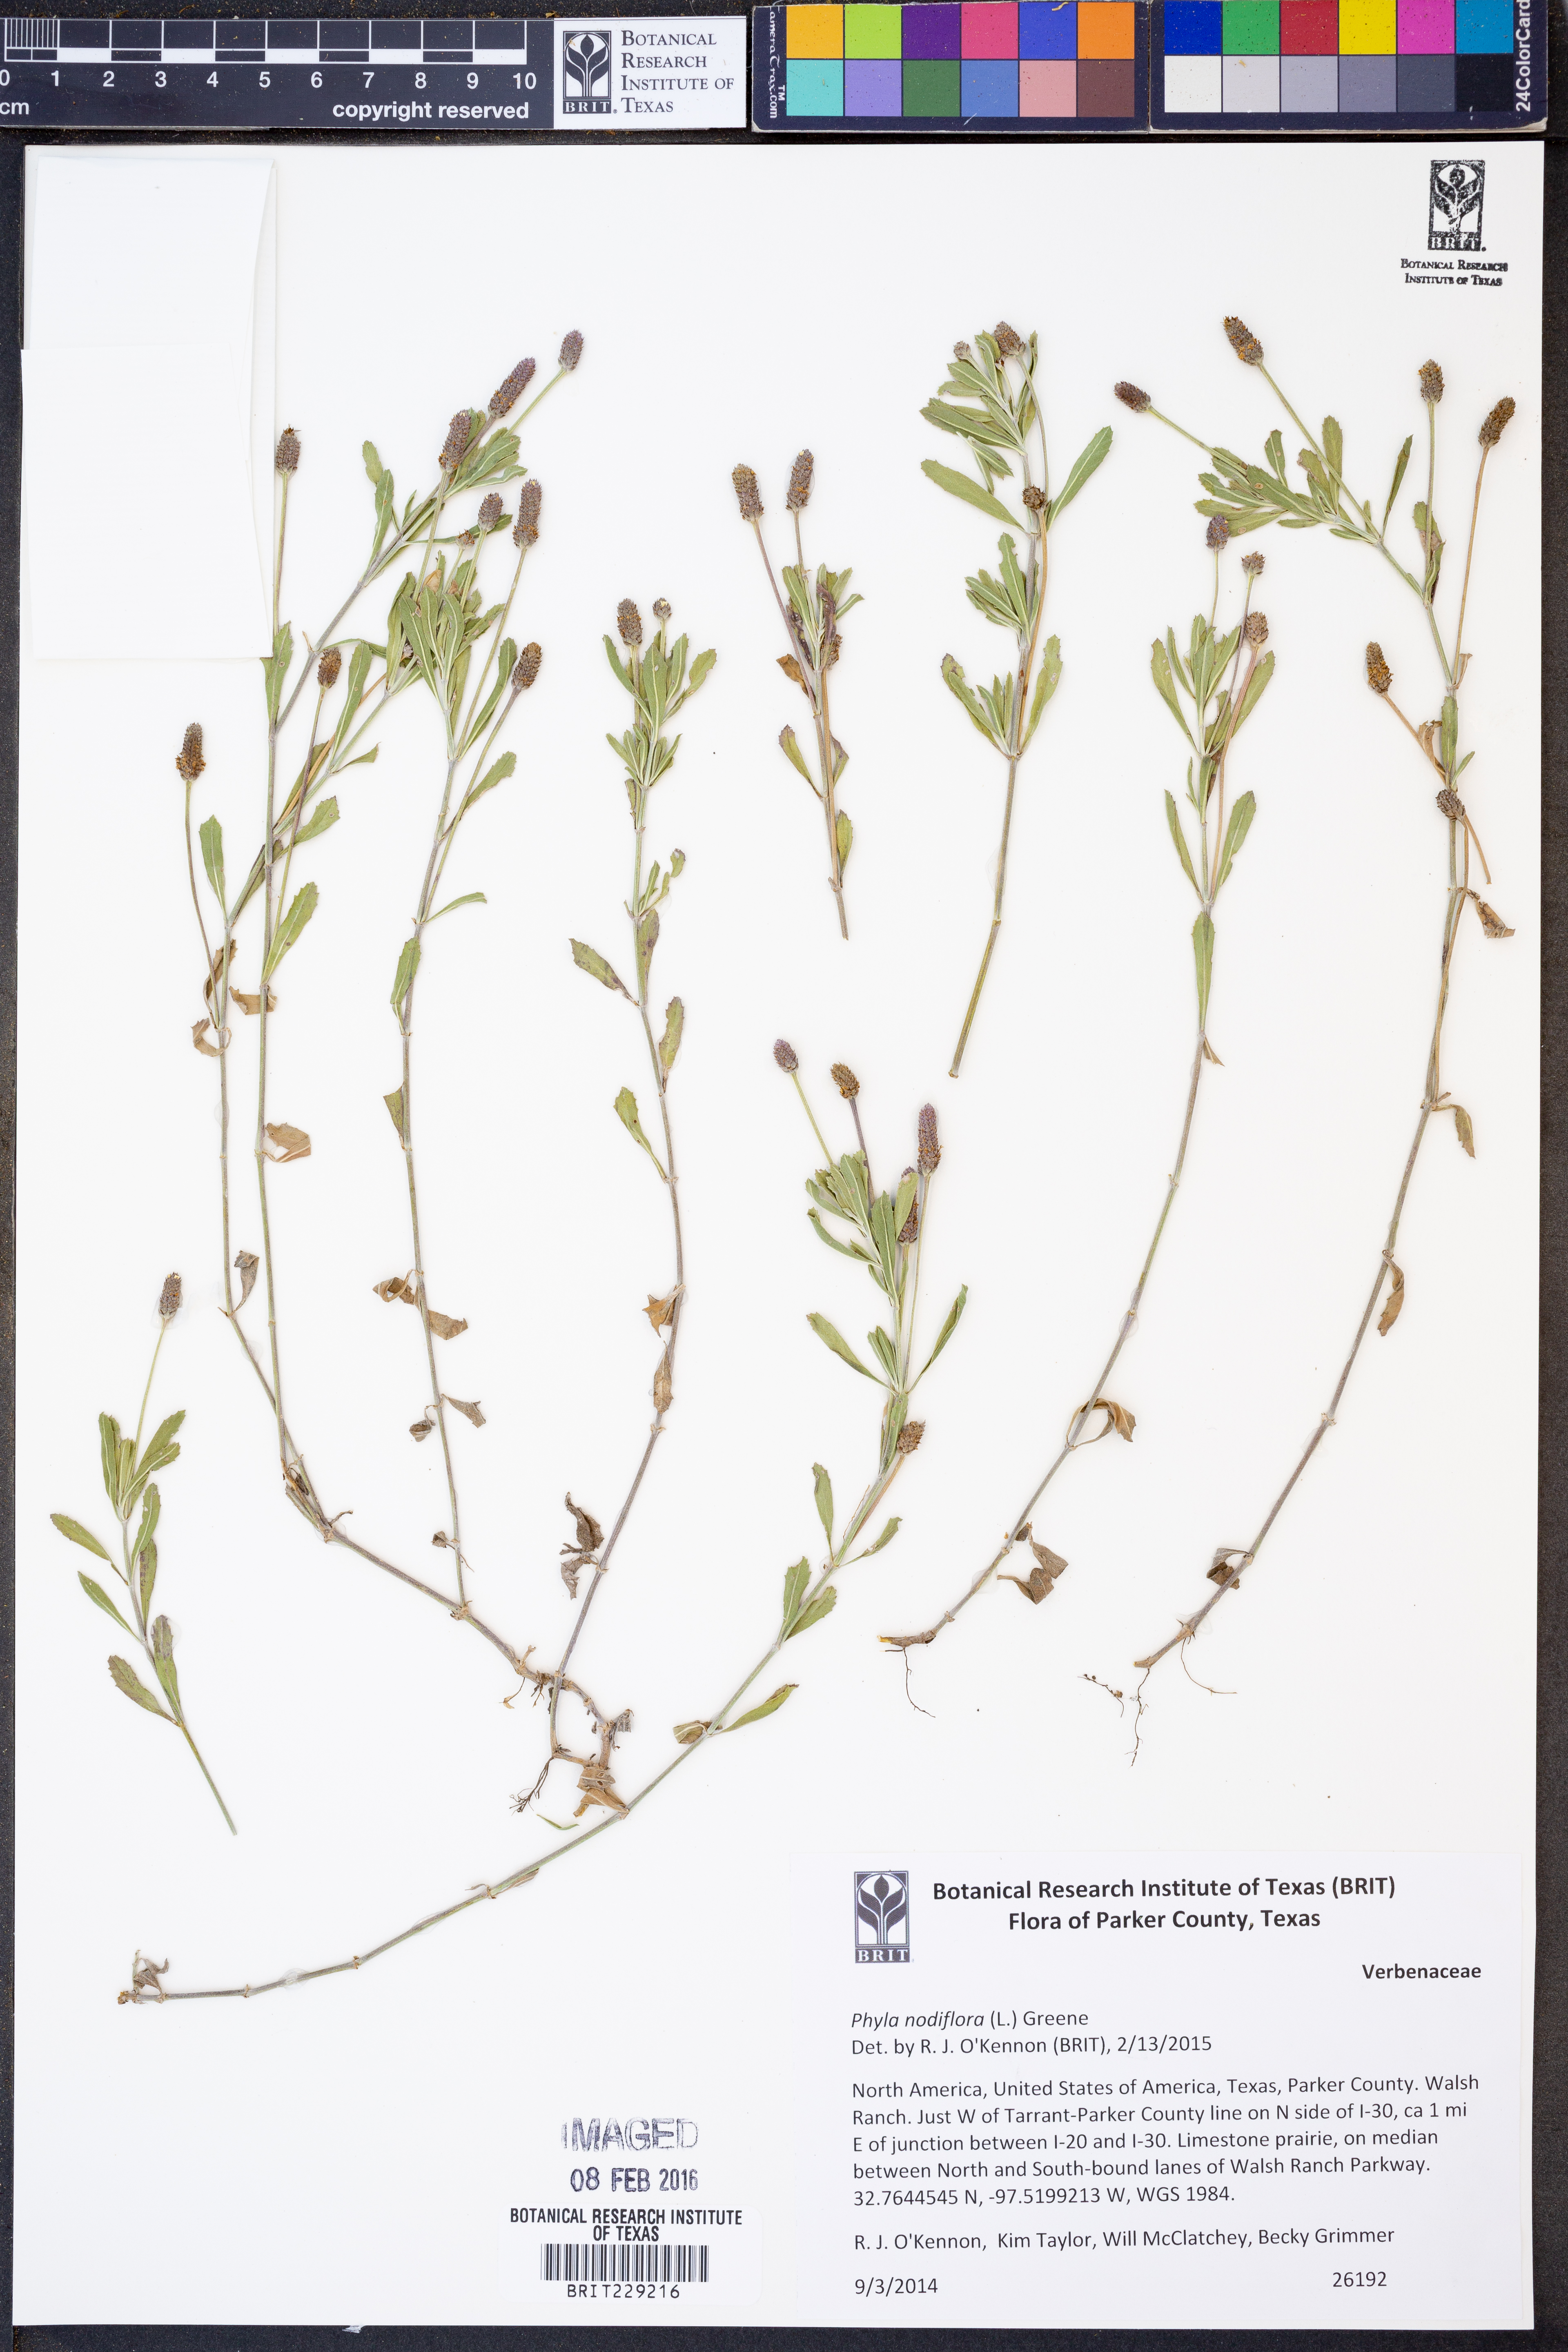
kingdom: Plantae
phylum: Tracheophyta
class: Magnoliopsida
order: Lamiales
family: Verbenaceae
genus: Phyla
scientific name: Phyla nodiflora
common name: Frogfruit
